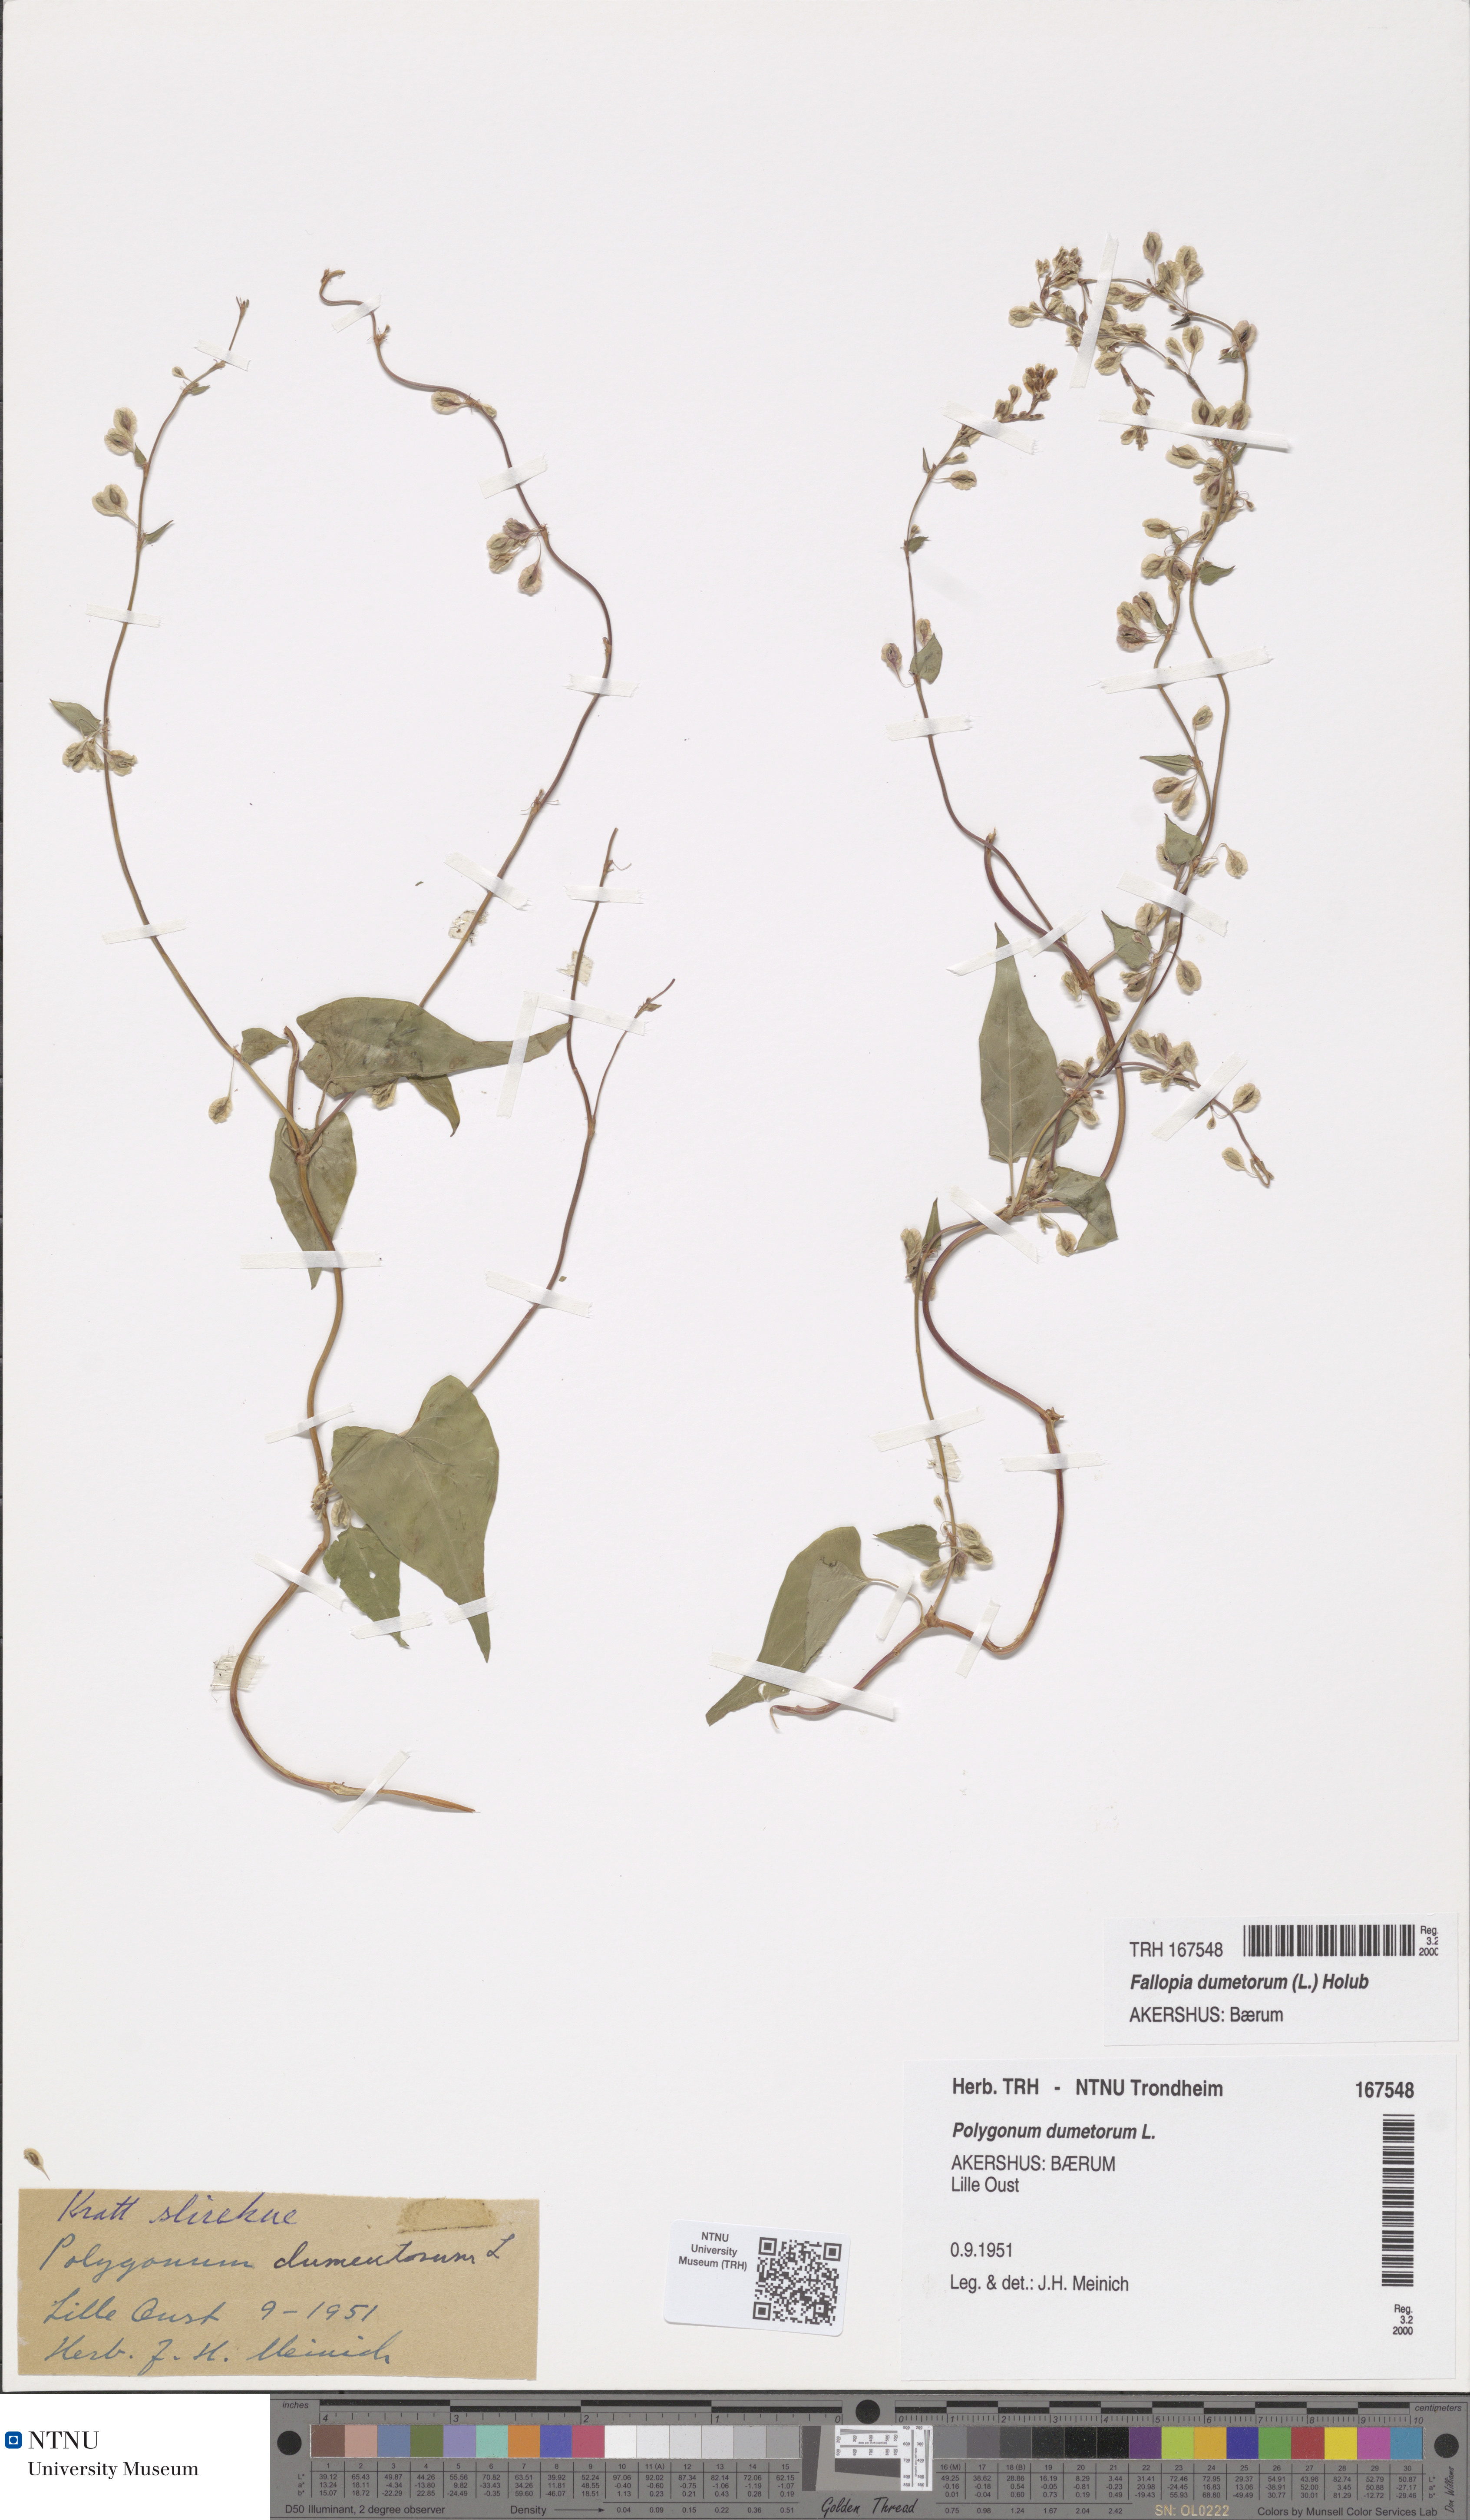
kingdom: Plantae
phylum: Tracheophyta
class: Magnoliopsida
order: Caryophyllales
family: Polygonaceae
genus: Fallopia
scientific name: Fallopia dumetorum
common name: Copse-bindweed
